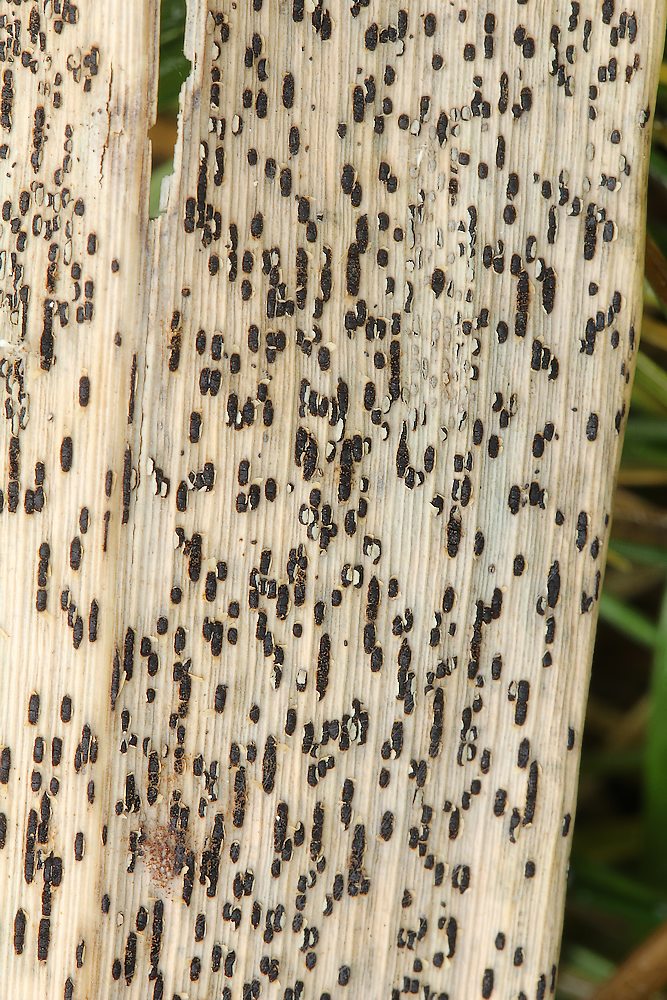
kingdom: Fungi
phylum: Basidiomycota
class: Pucciniomycetes
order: Pucciniales
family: Pucciniaceae
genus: Puccinia
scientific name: Puccinia phragmitis
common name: tagrør-tvecellerust
